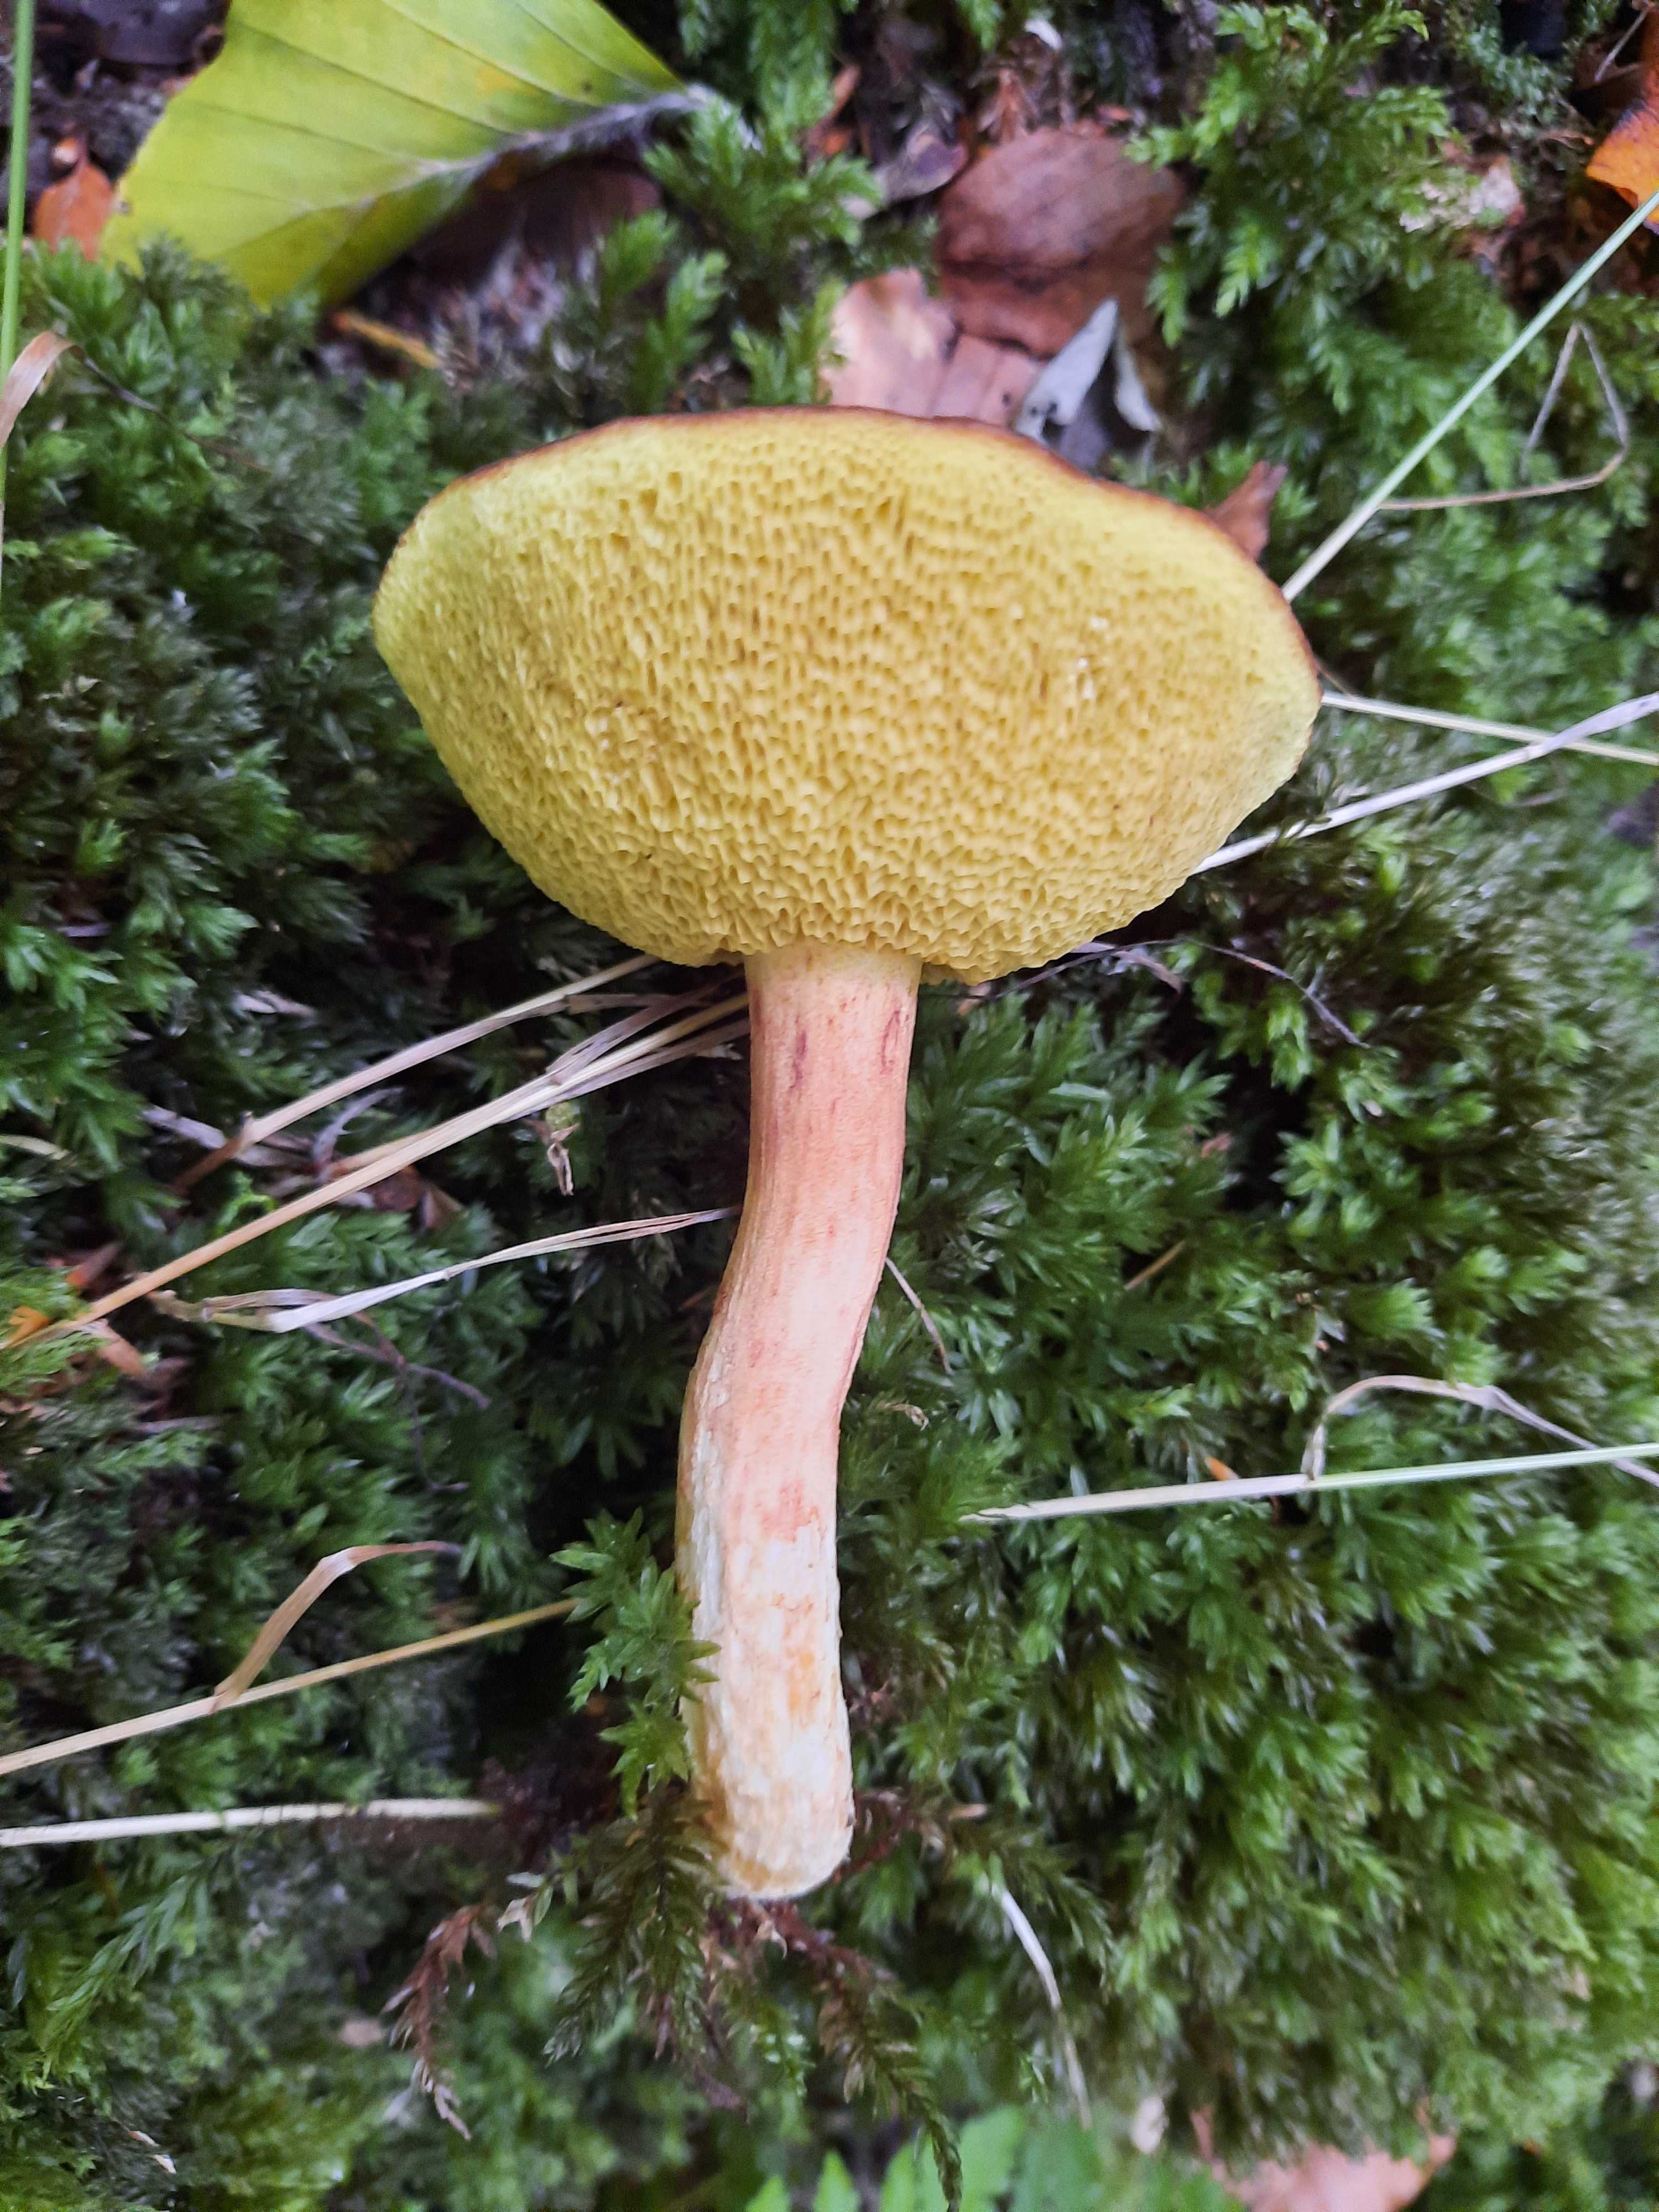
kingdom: Fungi
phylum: Basidiomycota
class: Agaricomycetes
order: Boletales
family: Boletaceae
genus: Xerocomus
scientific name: Xerocomus ferrugineus
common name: vaskeskinds-rørhat
